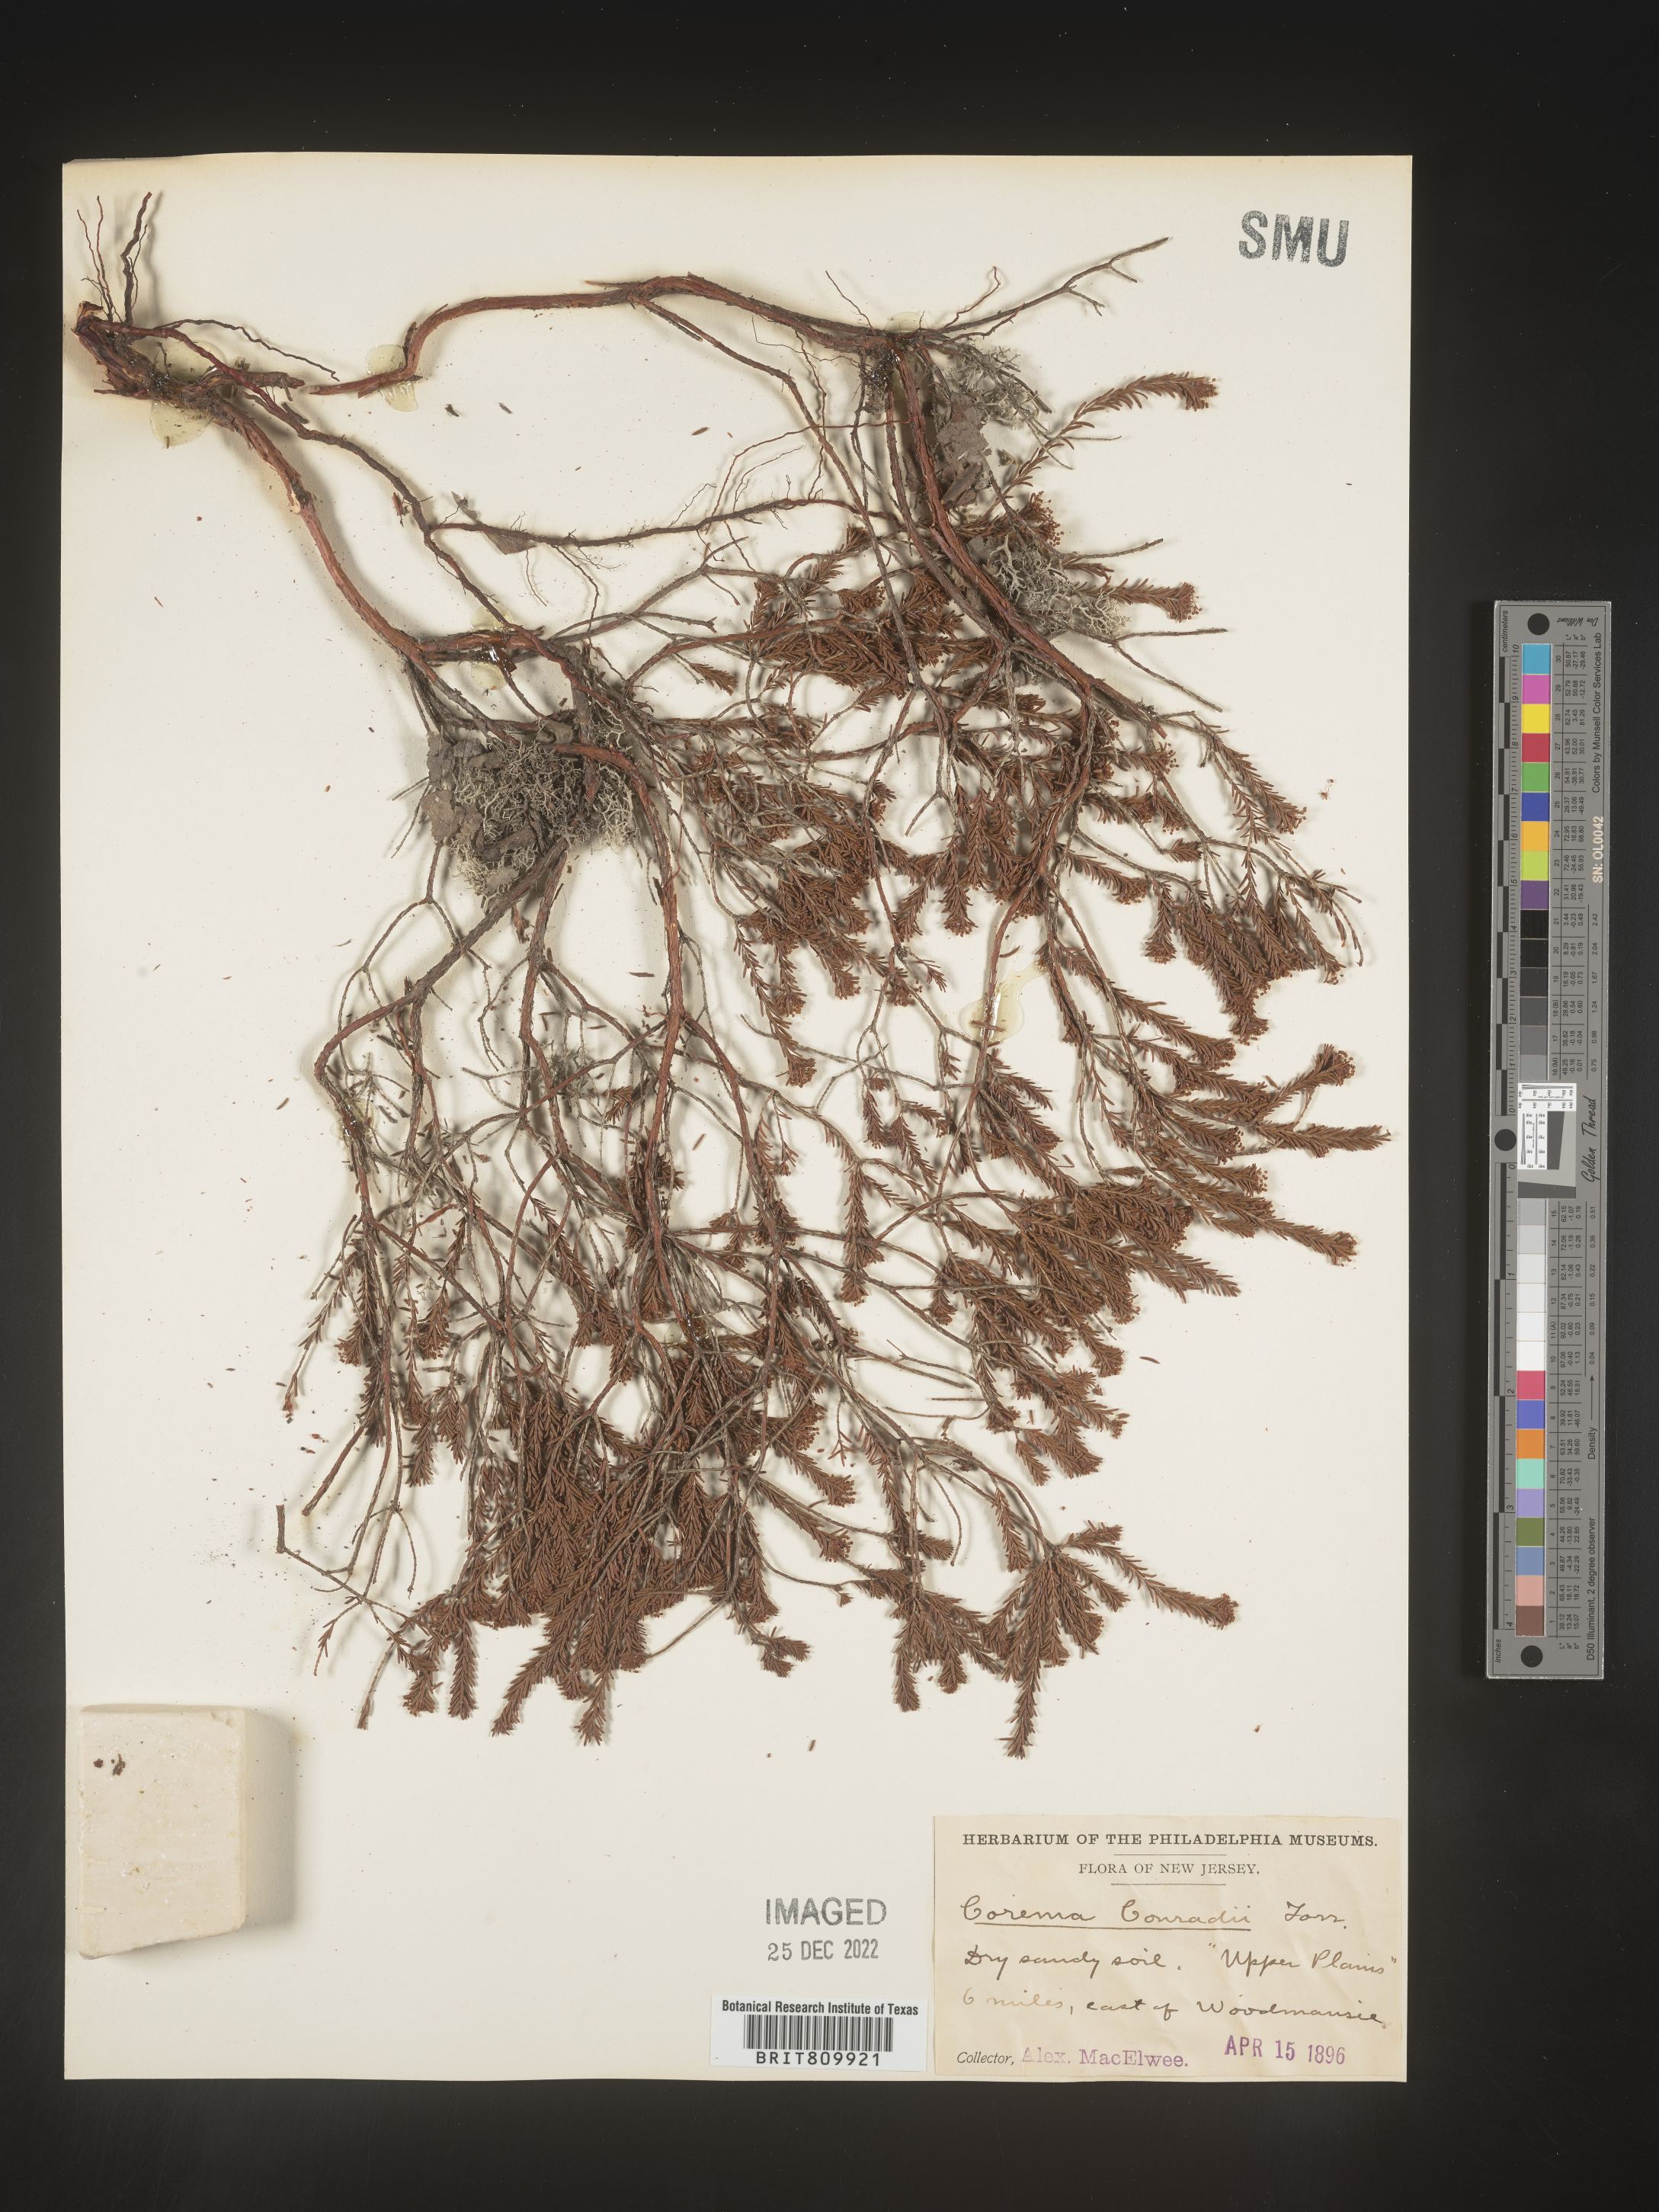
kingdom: Plantae
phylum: Tracheophyta
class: Magnoliopsida
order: Ericales
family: Ericaceae
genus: Corema
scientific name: Corema
